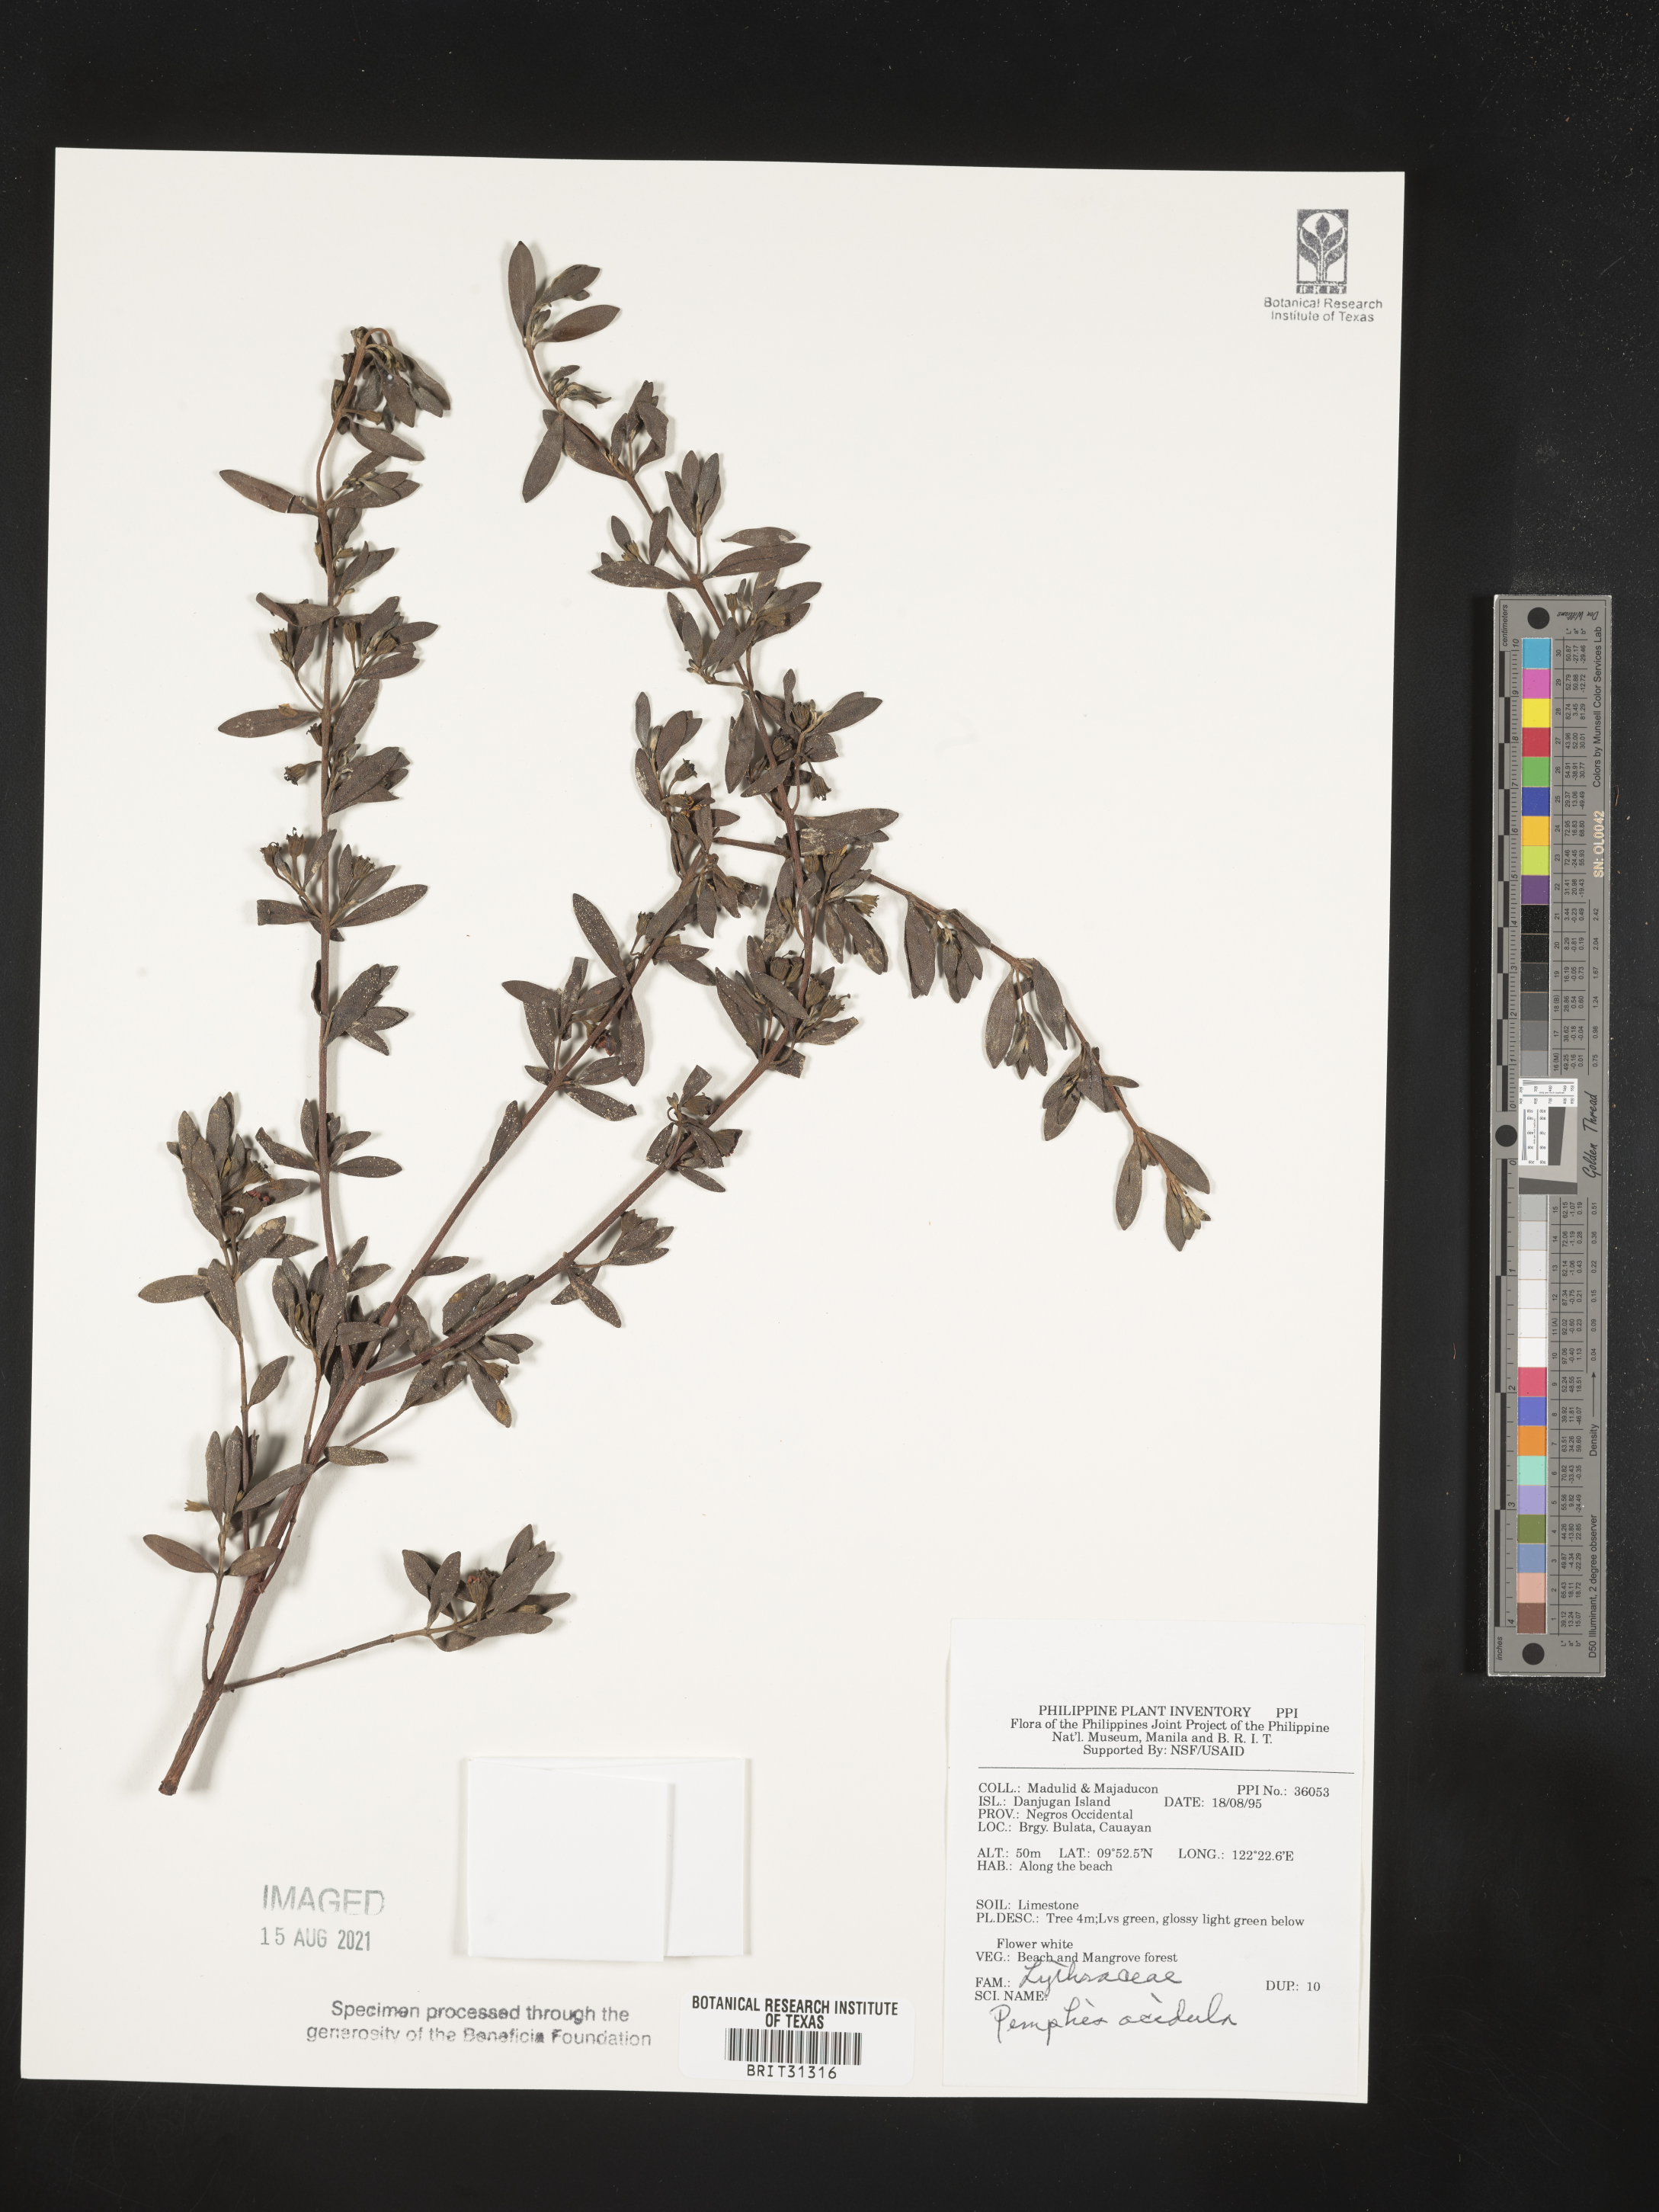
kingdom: Plantae
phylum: Tracheophyta
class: Magnoliopsida
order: Myrtales
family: Lythraceae
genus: Pemphis
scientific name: Pemphis acidula
